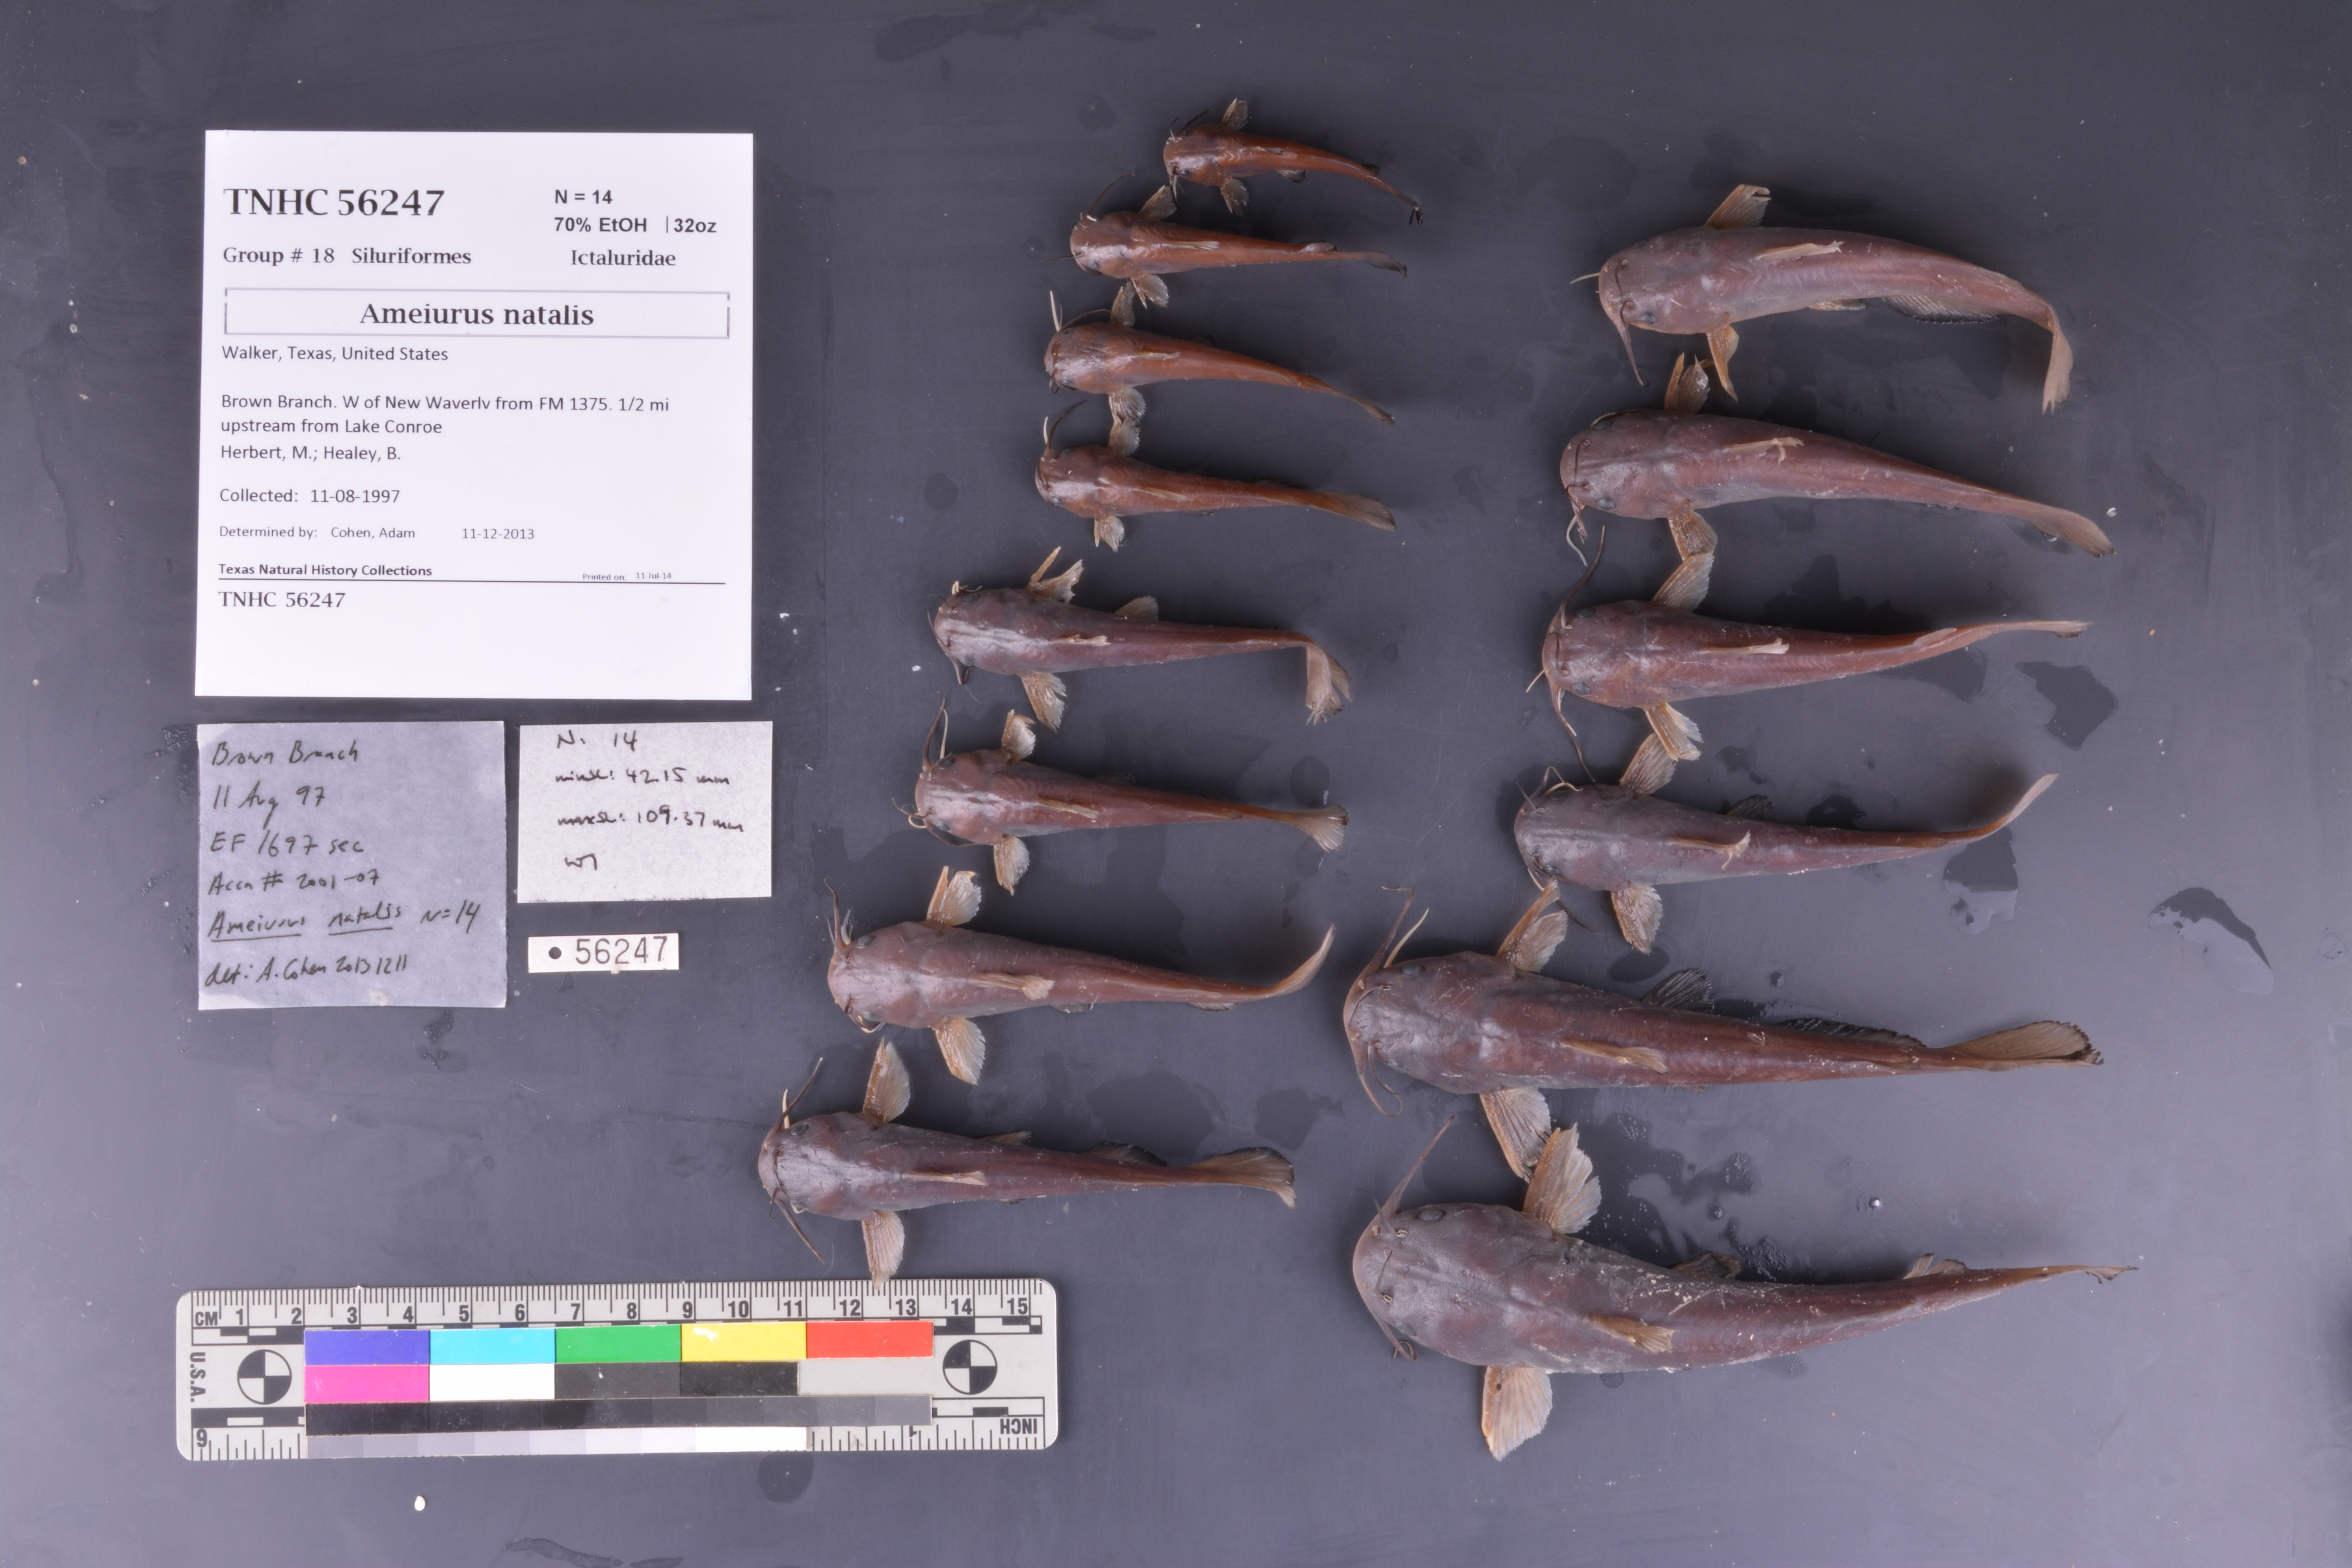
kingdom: Animalia
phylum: Chordata
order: Siluriformes
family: Ictaluridae
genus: Ameiurus
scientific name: Ameiurus natalis
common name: Yellow bullhead
